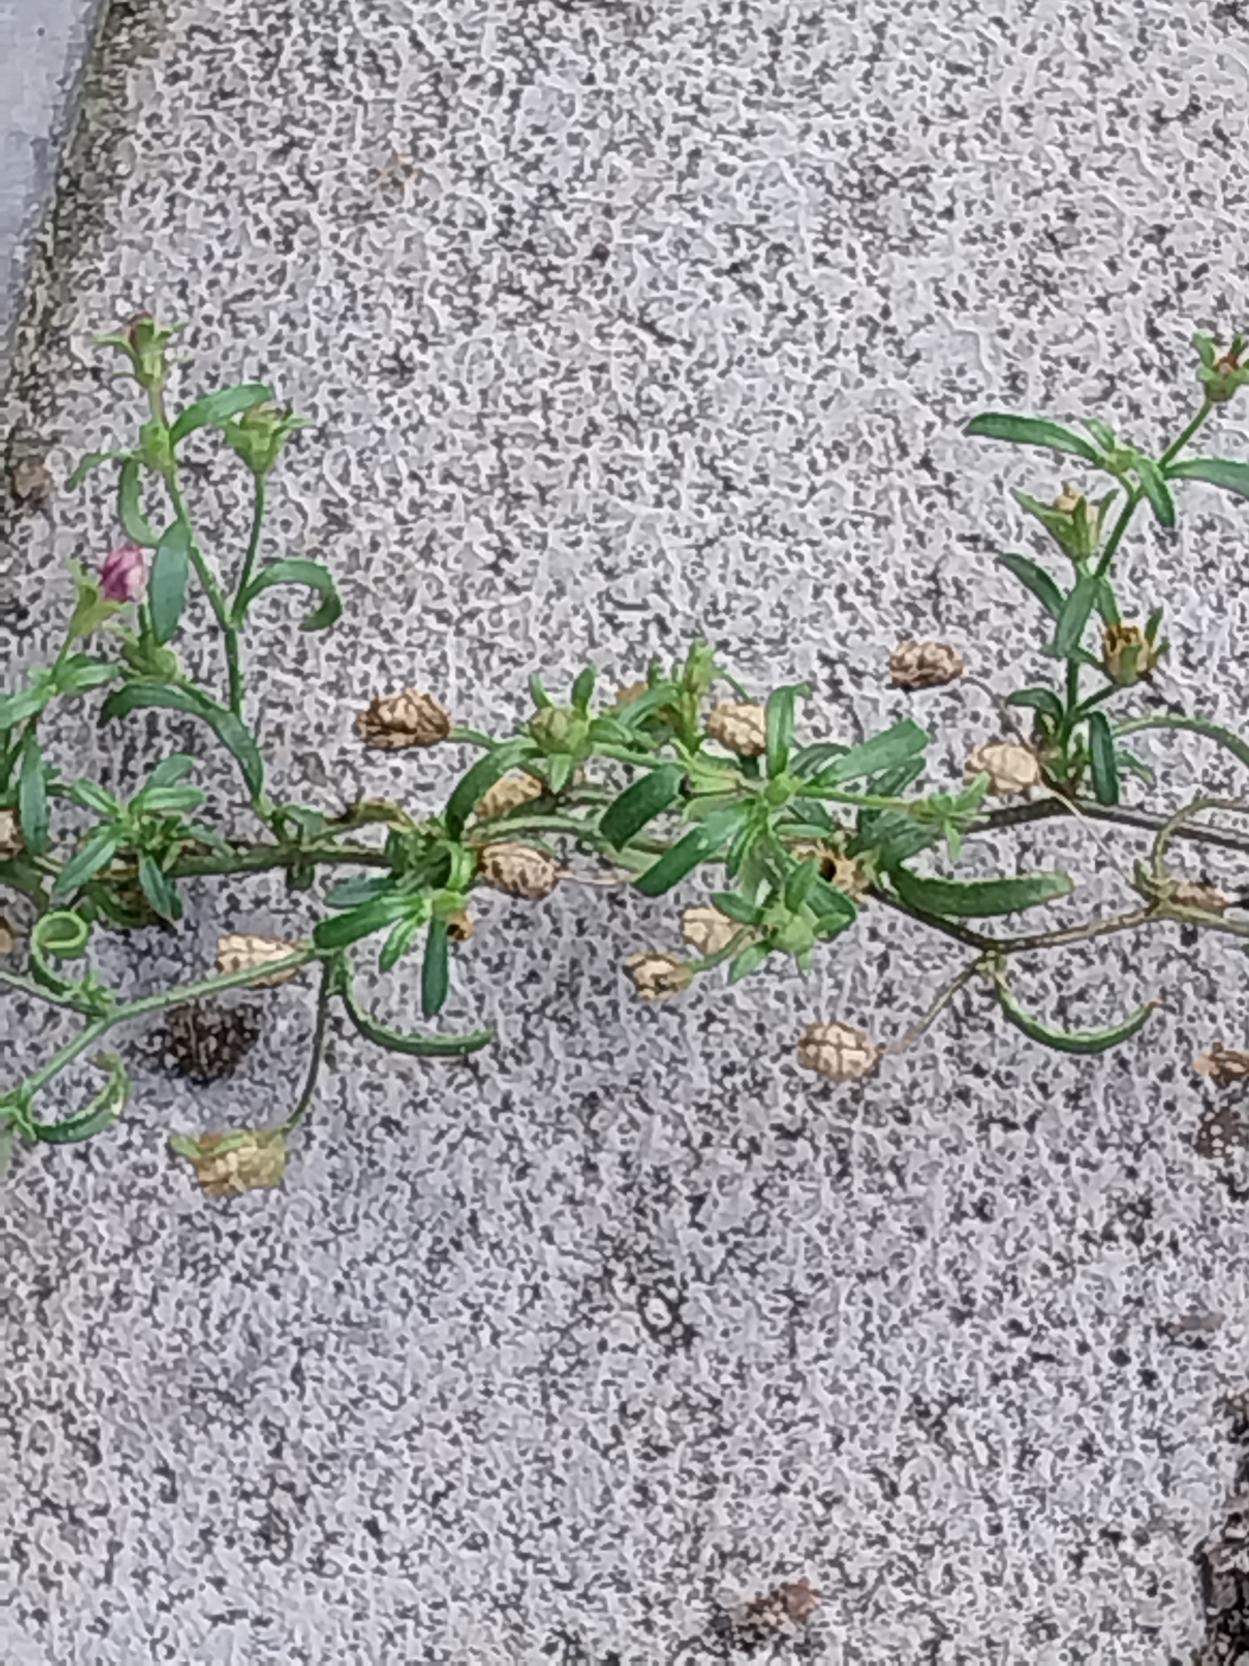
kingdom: Plantae
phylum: Tracheophyta
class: Magnoliopsida
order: Lamiales
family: Plantaginaceae
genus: Chaenorhinum
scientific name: Chaenorhinum minus
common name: Liden torskemund
